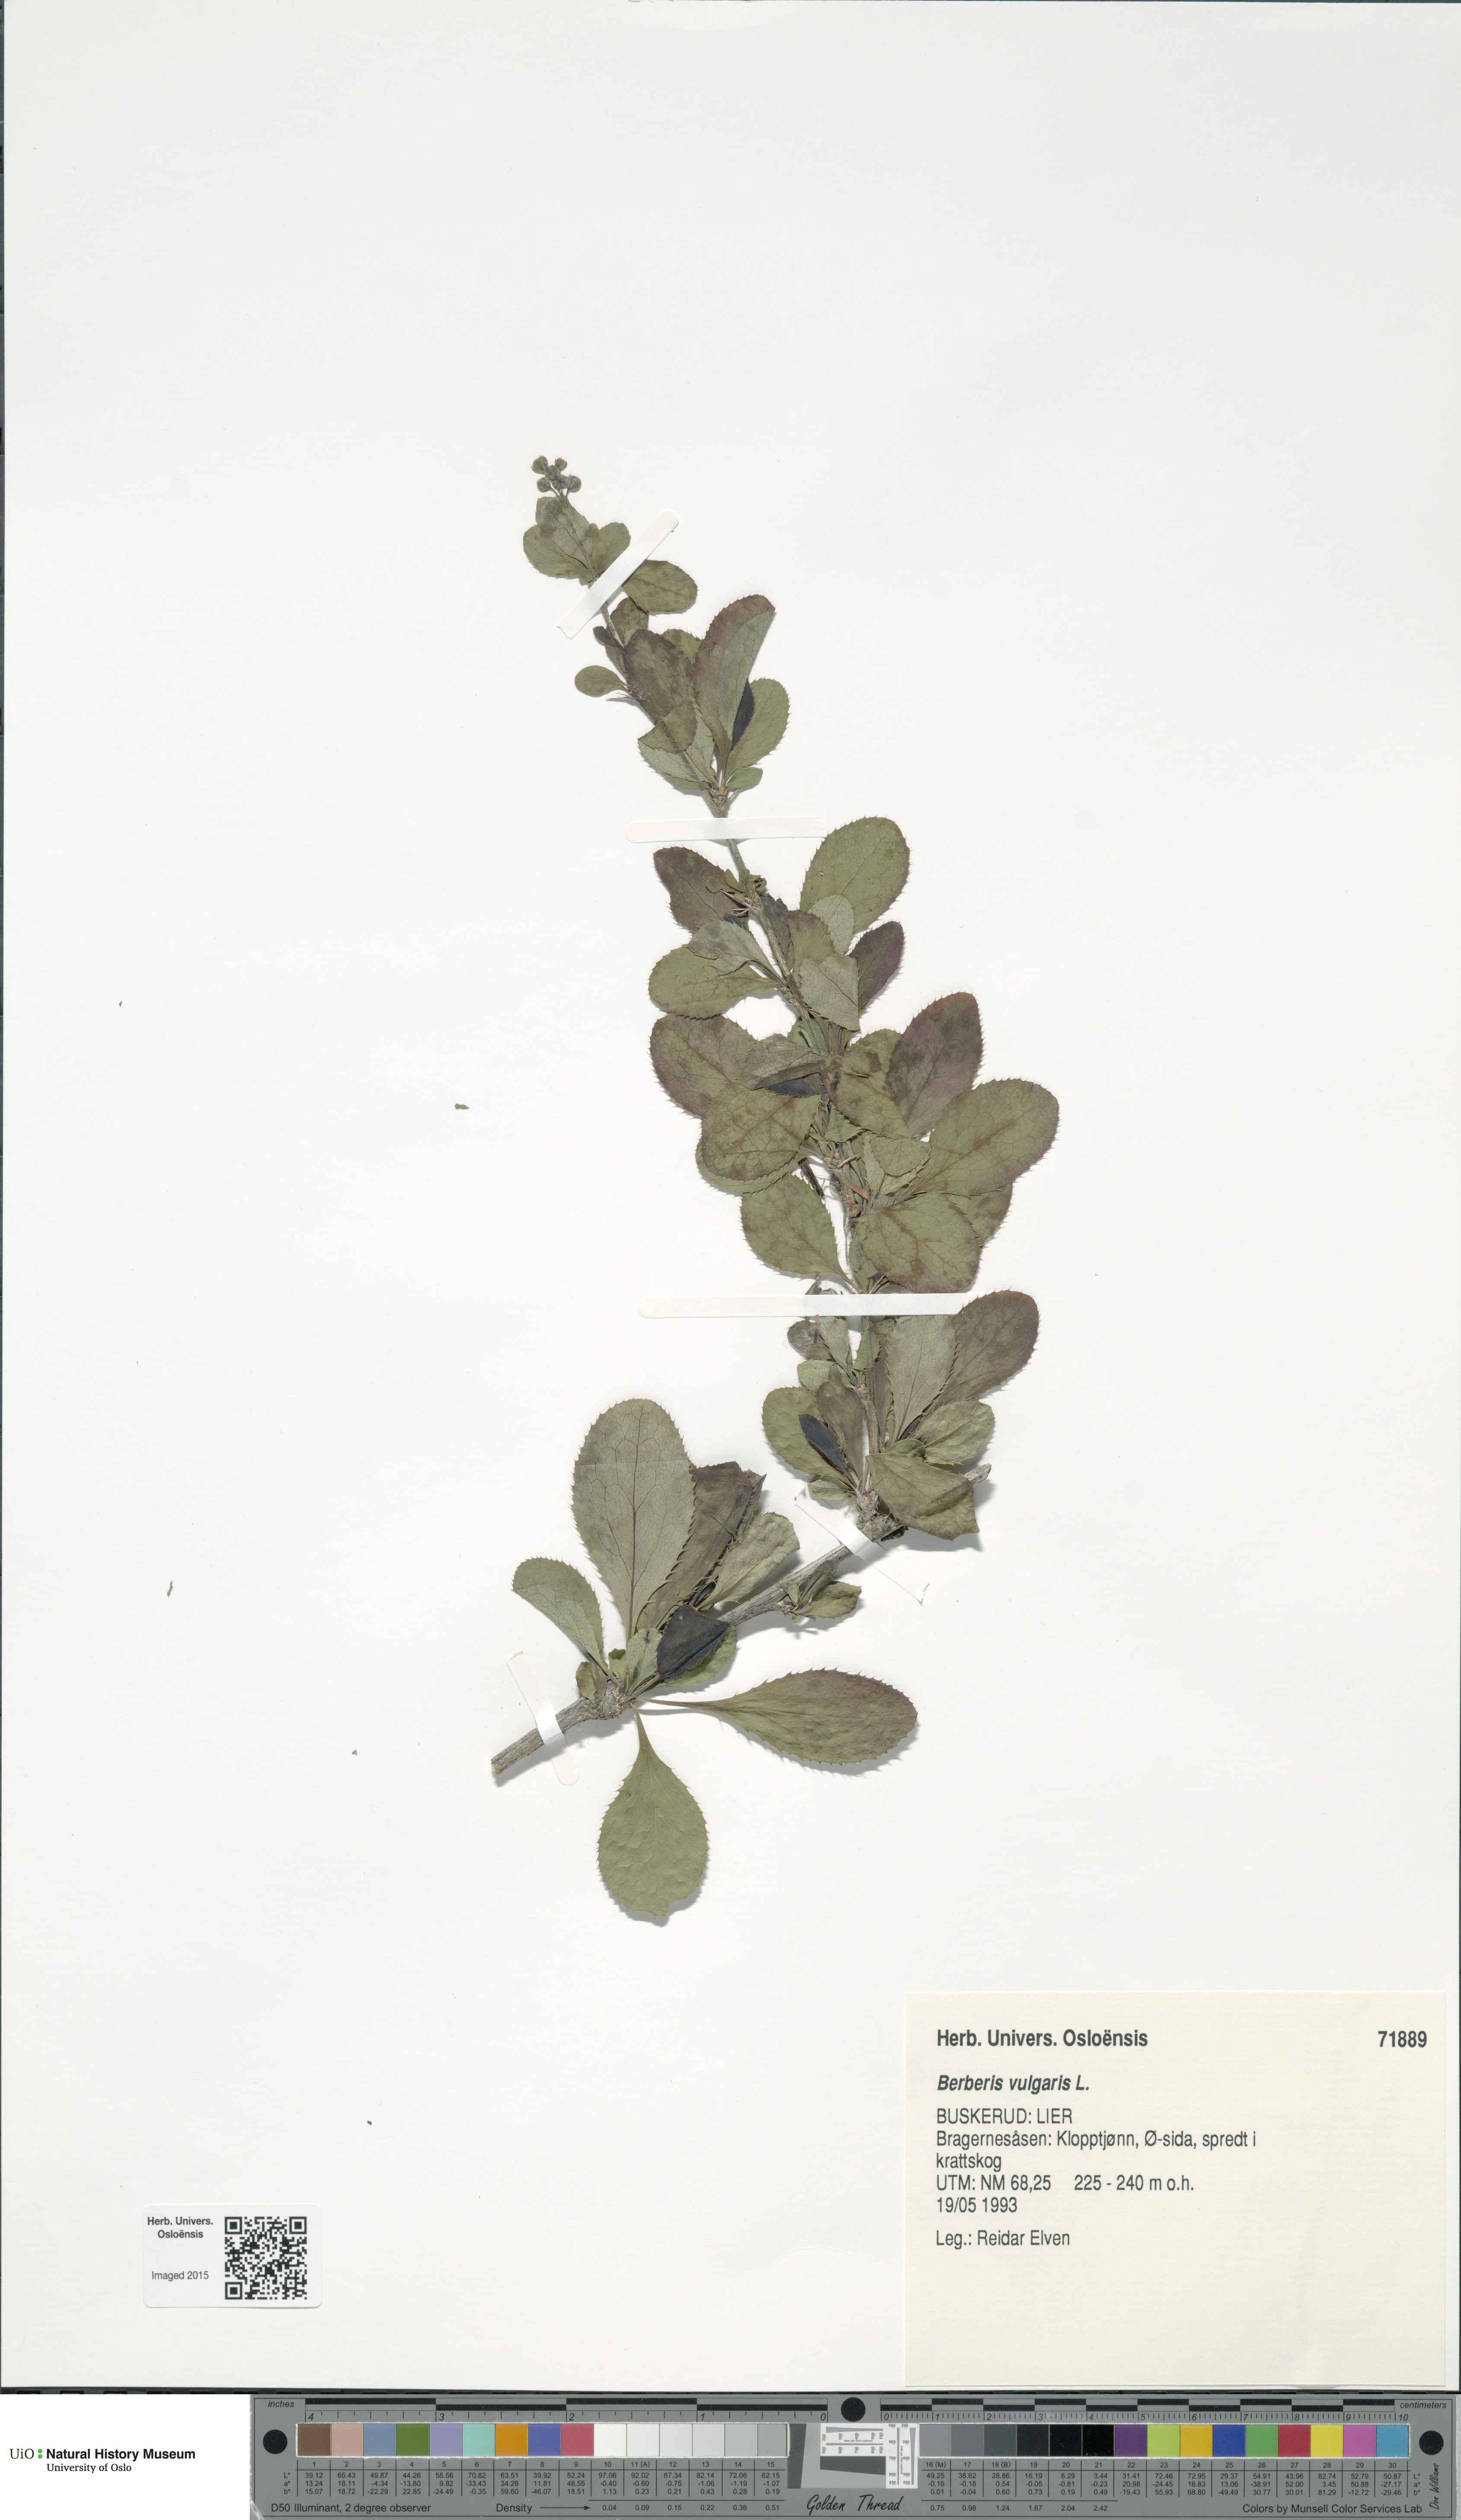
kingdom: Plantae
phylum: Tracheophyta
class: Magnoliopsida
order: Ranunculales
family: Berberidaceae
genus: Berberis
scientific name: Berberis vulgaris
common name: Barberry
